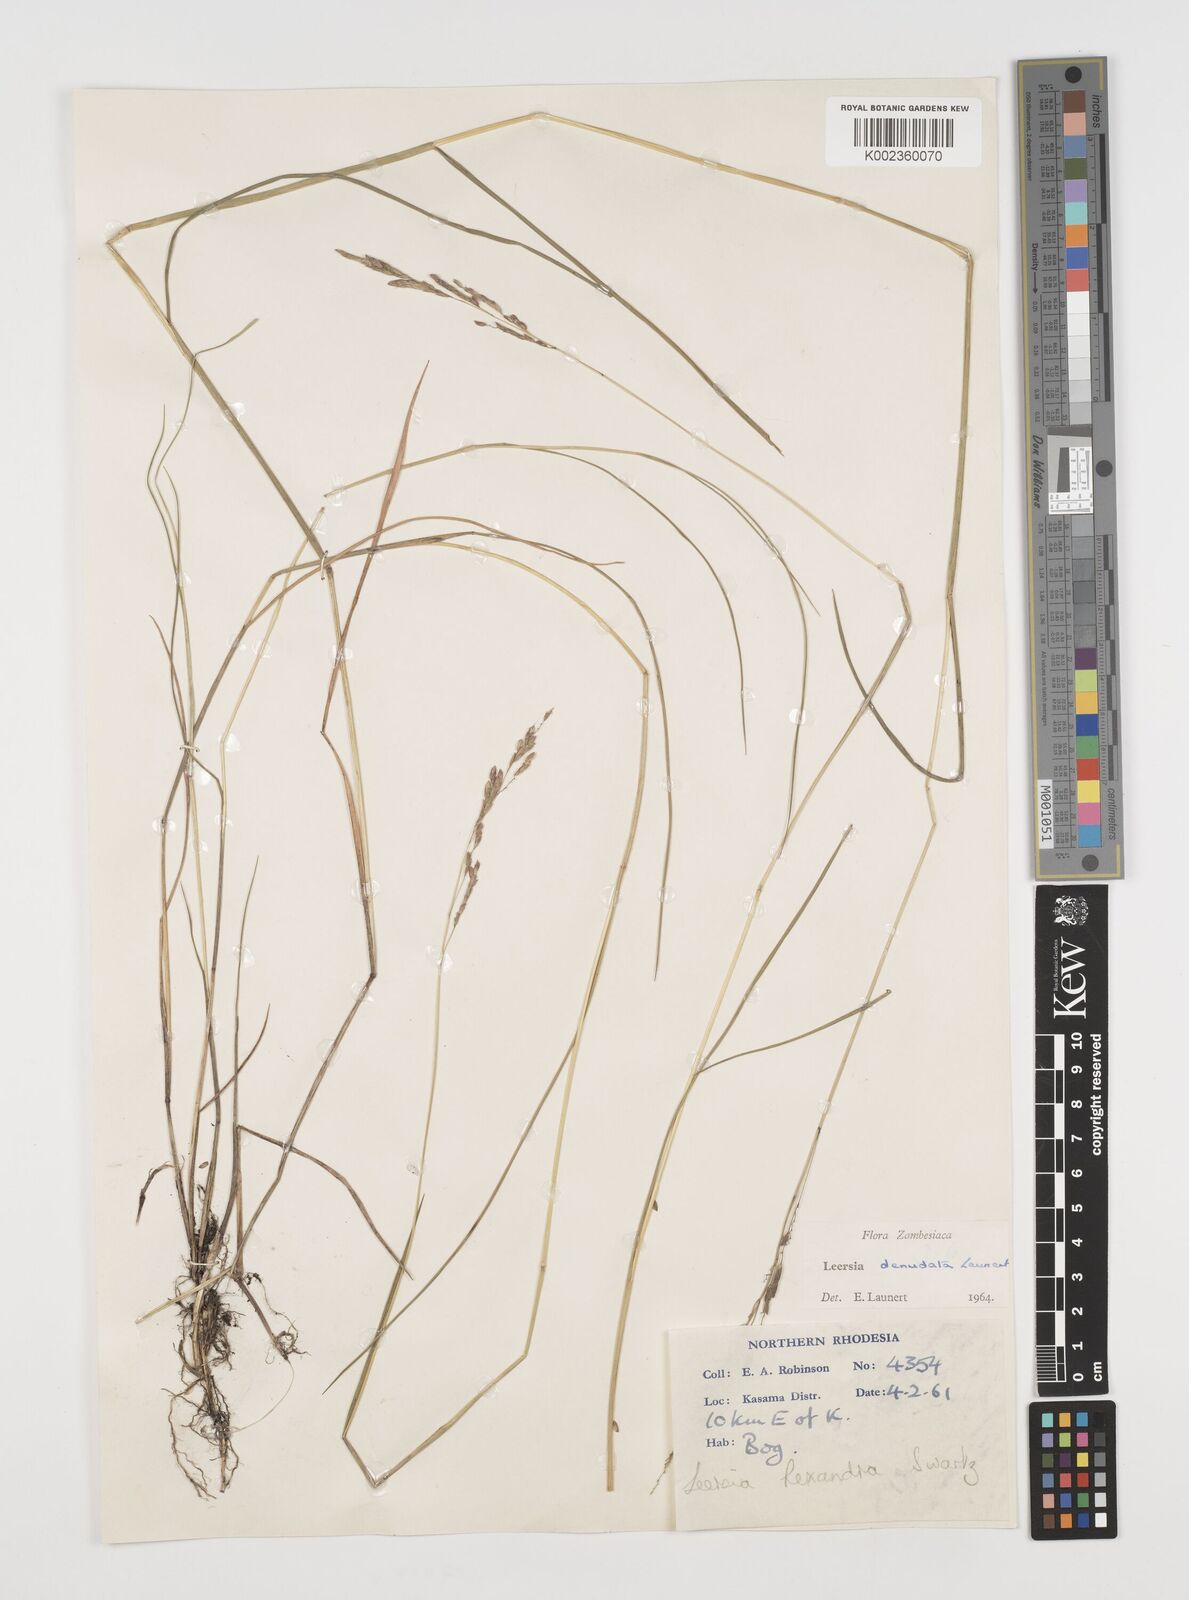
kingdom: Plantae
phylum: Tracheophyta
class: Liliopsida
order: Poales
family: Poaceae
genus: Leersia
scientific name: Leersia denudata
